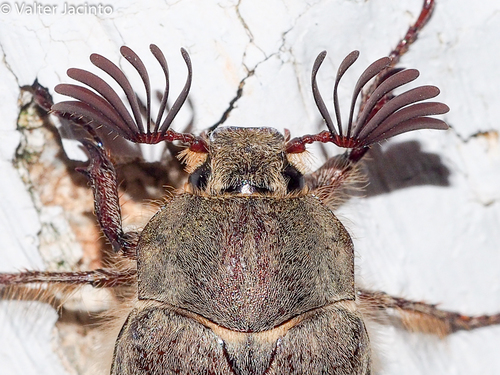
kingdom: Animalia
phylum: Arthropoda
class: Insecta
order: Coleoptera
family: Scarabaeidae
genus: Melolontha
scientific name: Melolontha papposa
